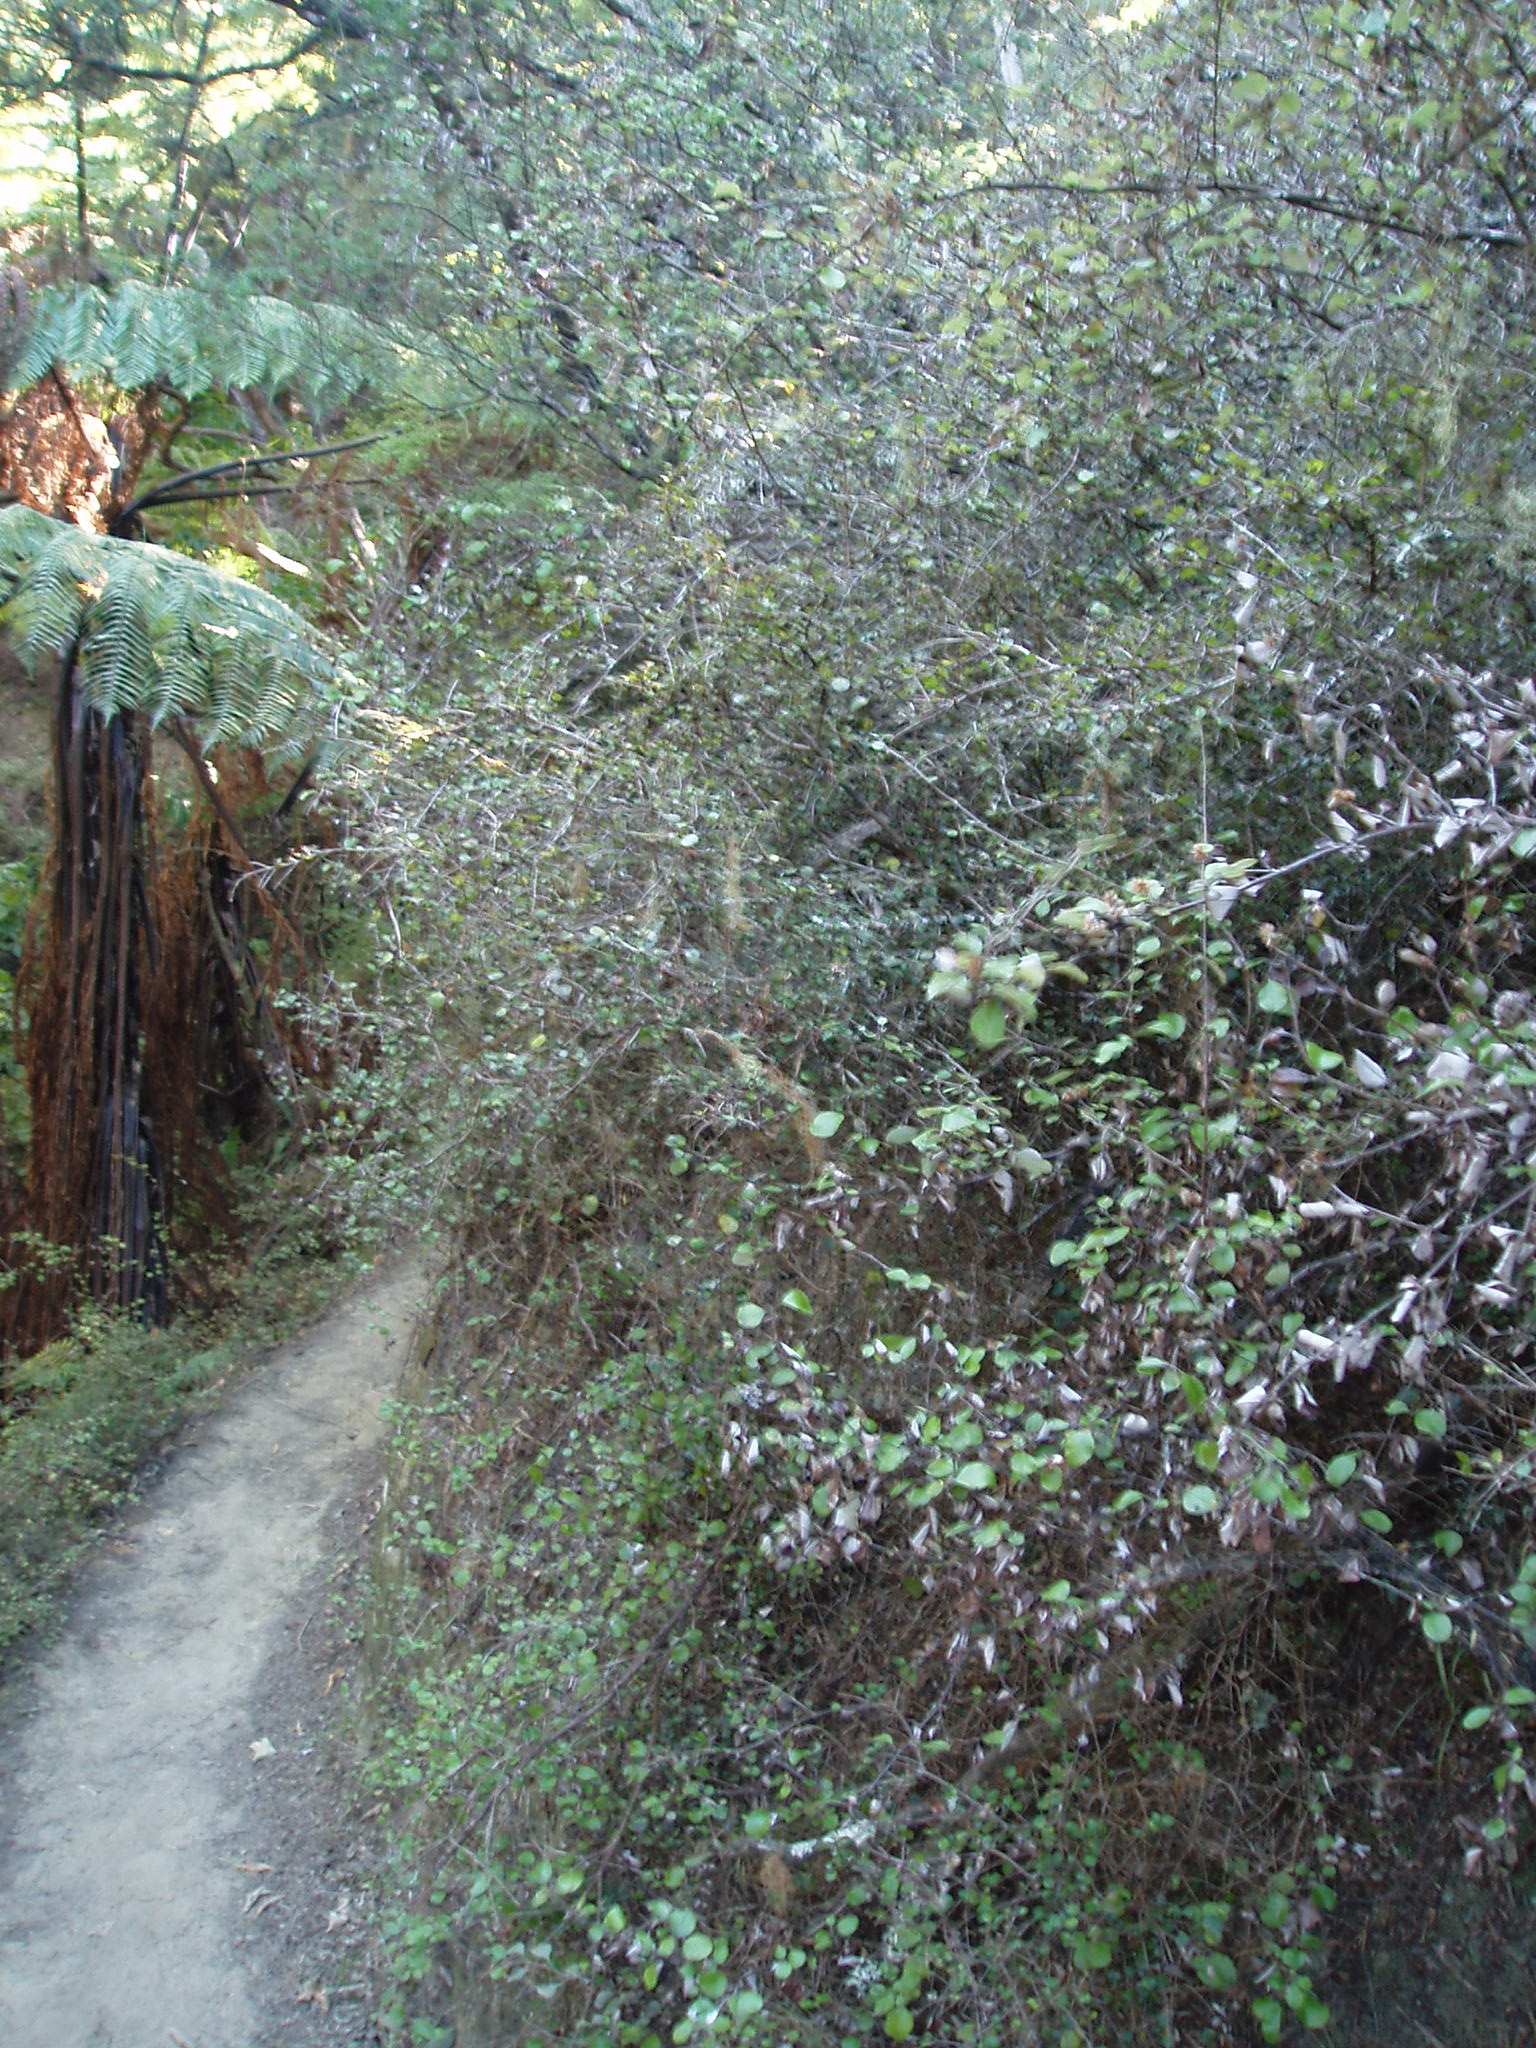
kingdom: Plantae
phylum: Tracheophyta
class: Magnoliopsida
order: Asterales
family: Asteraceae
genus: Ozothamnus
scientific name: Ozothamnus glomeratus
